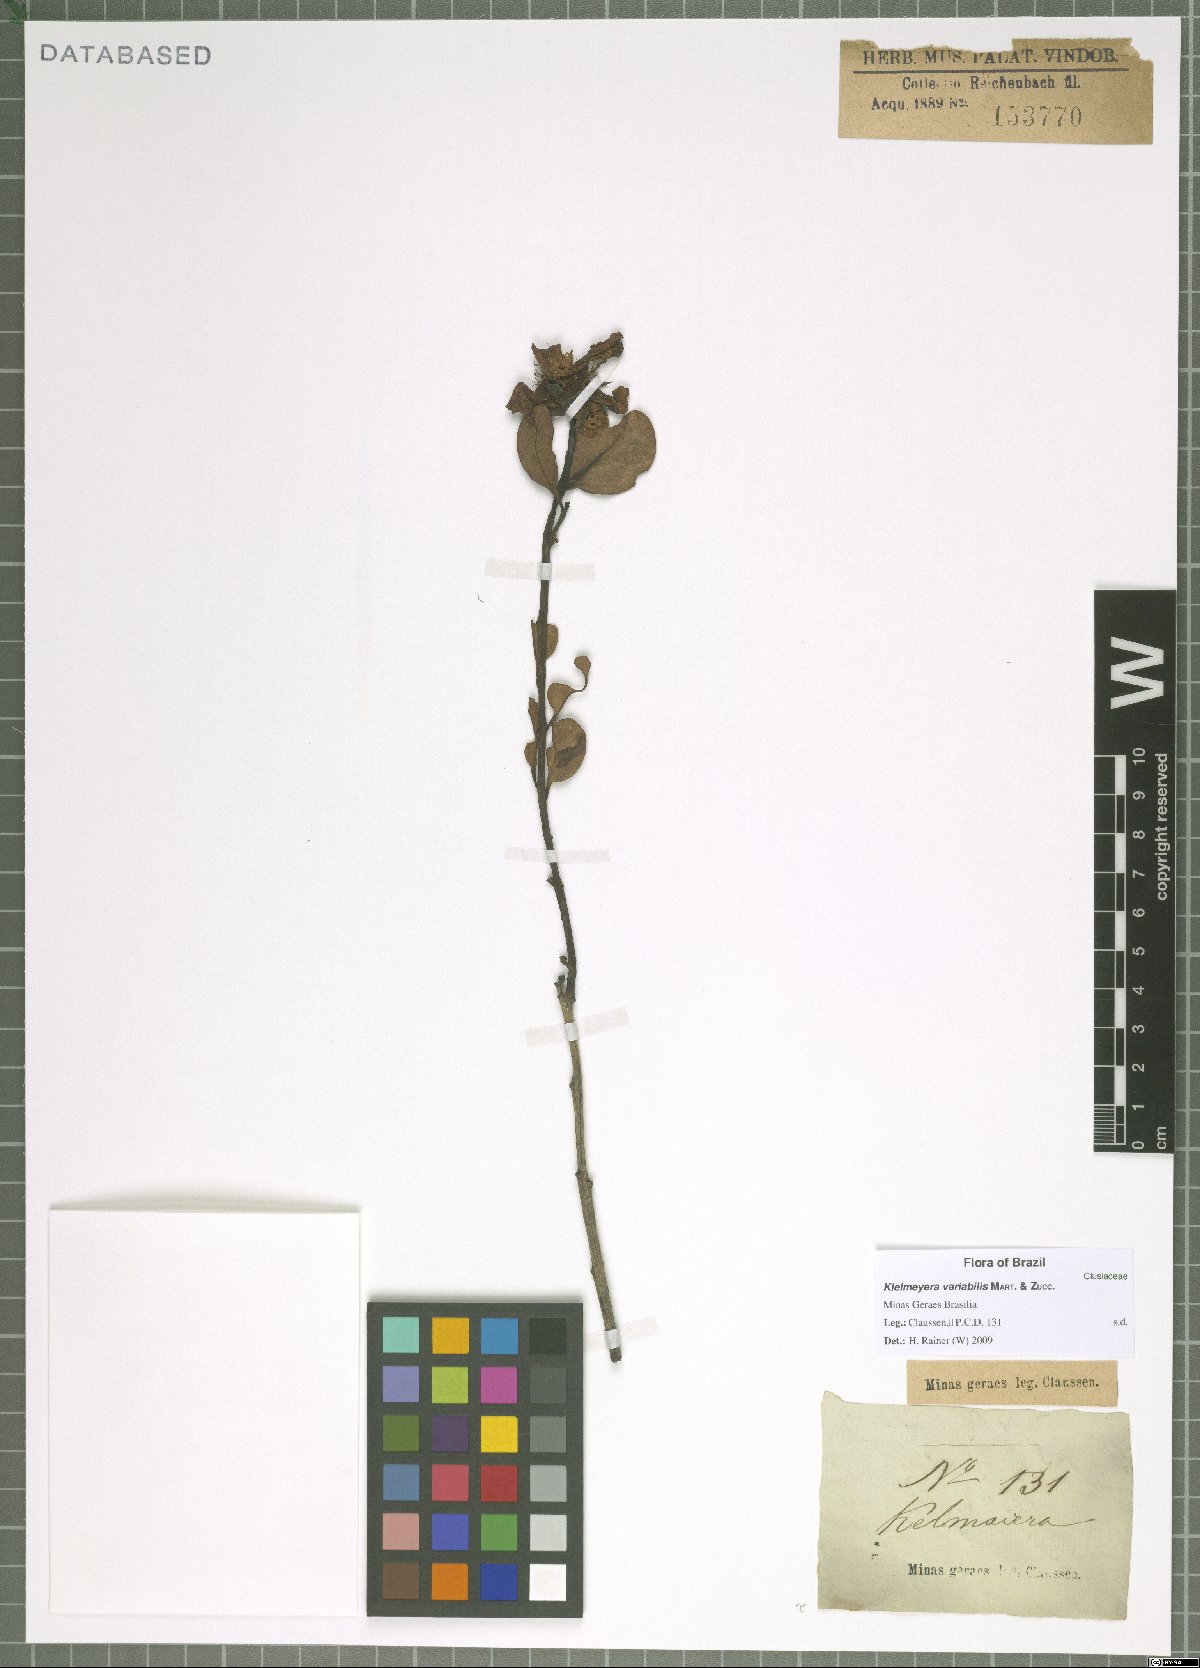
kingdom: Plantae
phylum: Tracheophyta
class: Magnoliopsida
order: Malpighiales
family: Calophyllaceae
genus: Kielmeyera
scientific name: Kielmeyera variabilis
